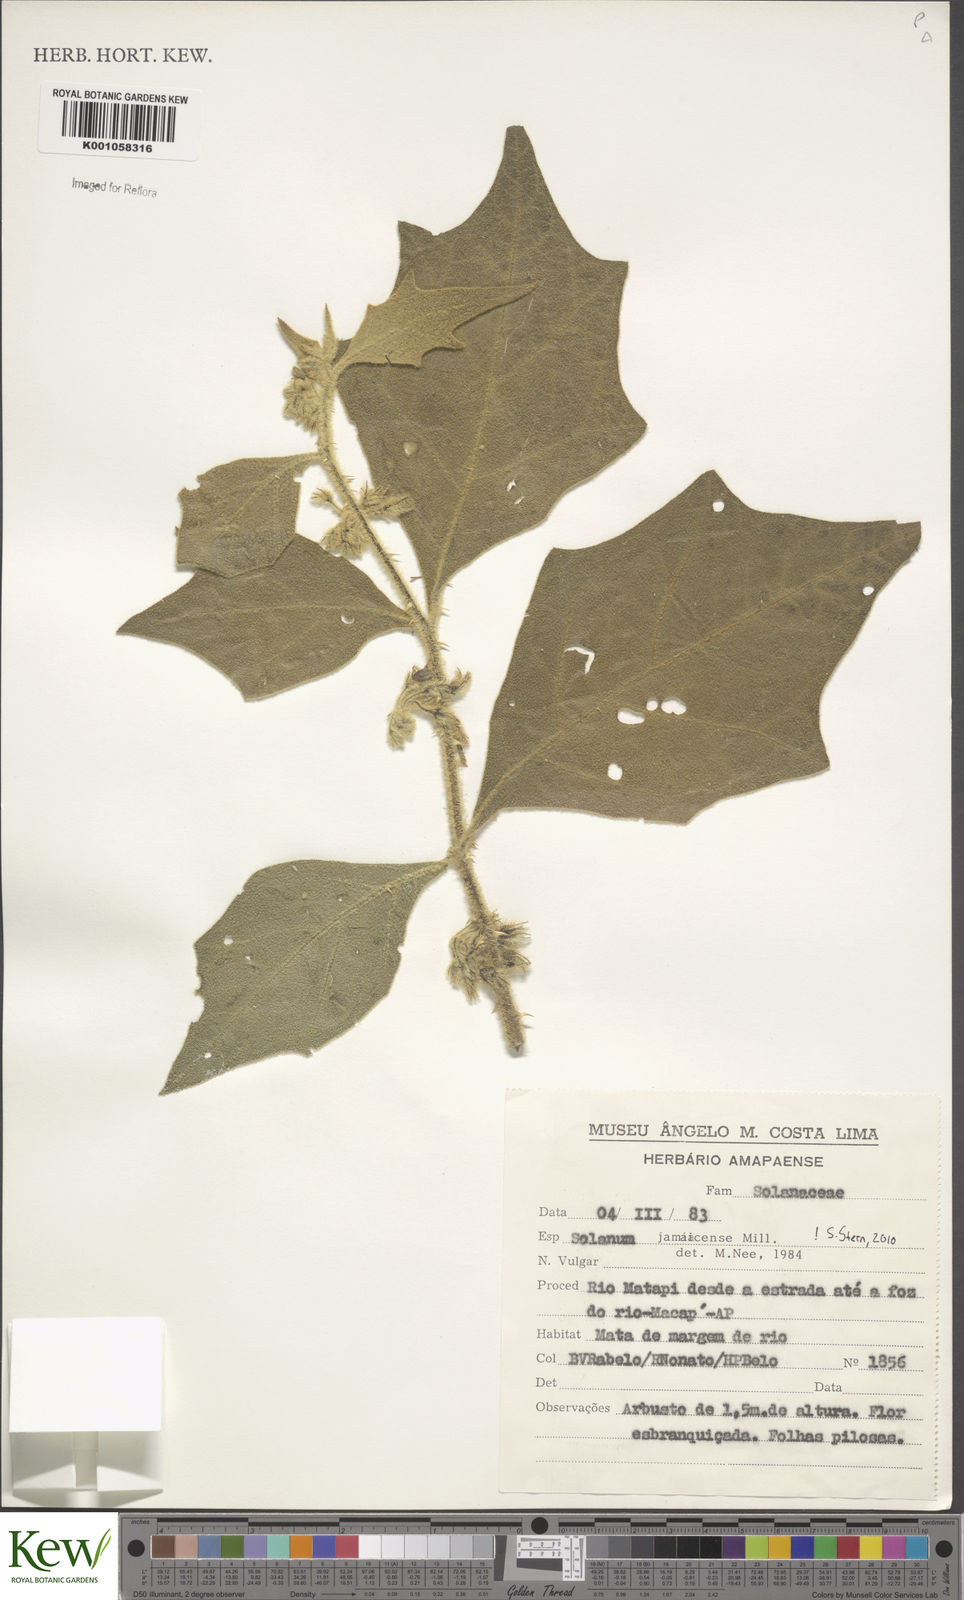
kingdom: Plantae
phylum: Tracheophyta
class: Magnoliopsida
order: Solanales
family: Solanaceae
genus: Solanum
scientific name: Solanum jamaicense
